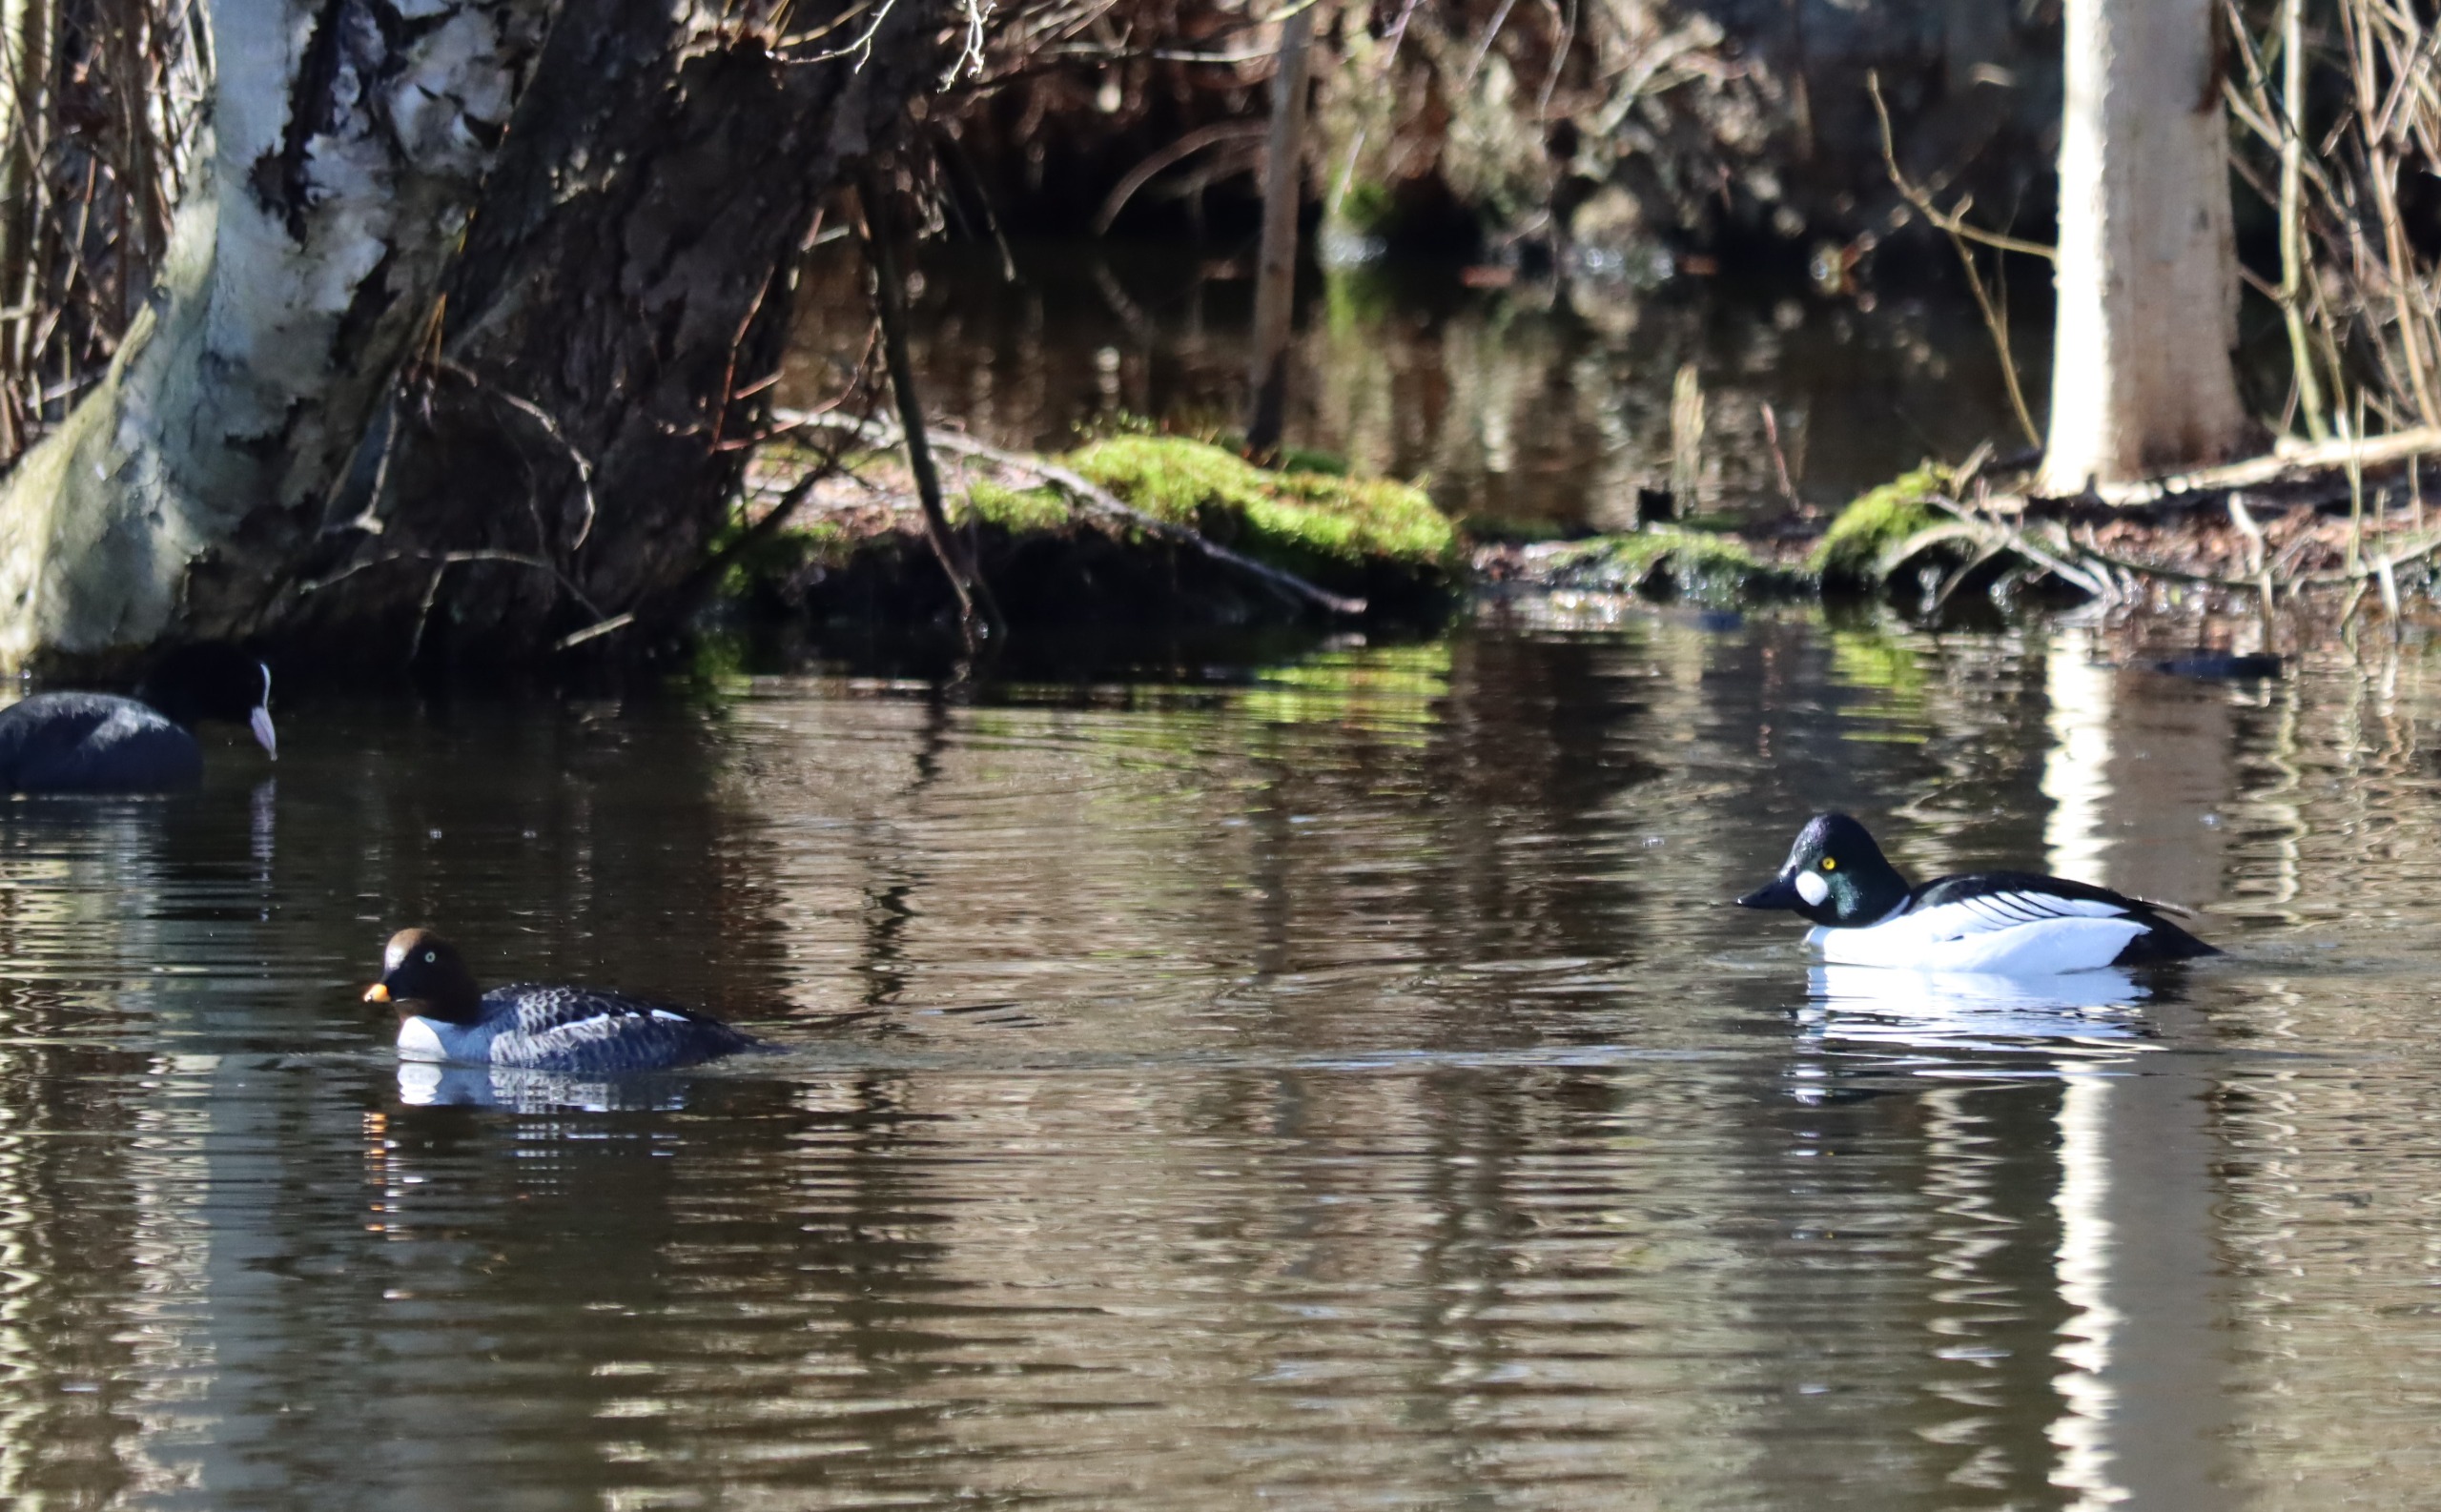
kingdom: Animalia
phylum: Chordata
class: Aves
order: Anseriformes
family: Anatidae
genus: Bucephala
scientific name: Bucephala clangula
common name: Hvinand
